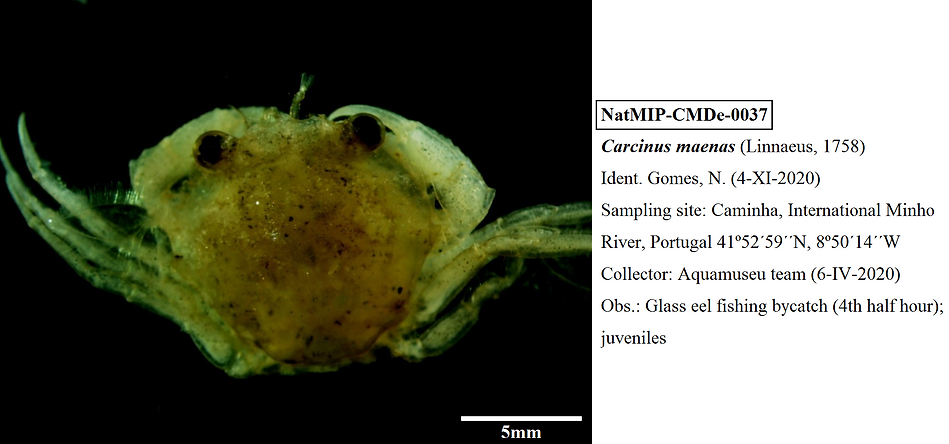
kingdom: Animalia
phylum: Arthropoda
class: Malacostraca
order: Decapoda
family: Carcinidae
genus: Carcinus
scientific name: Carcinus maenas
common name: European green crab
